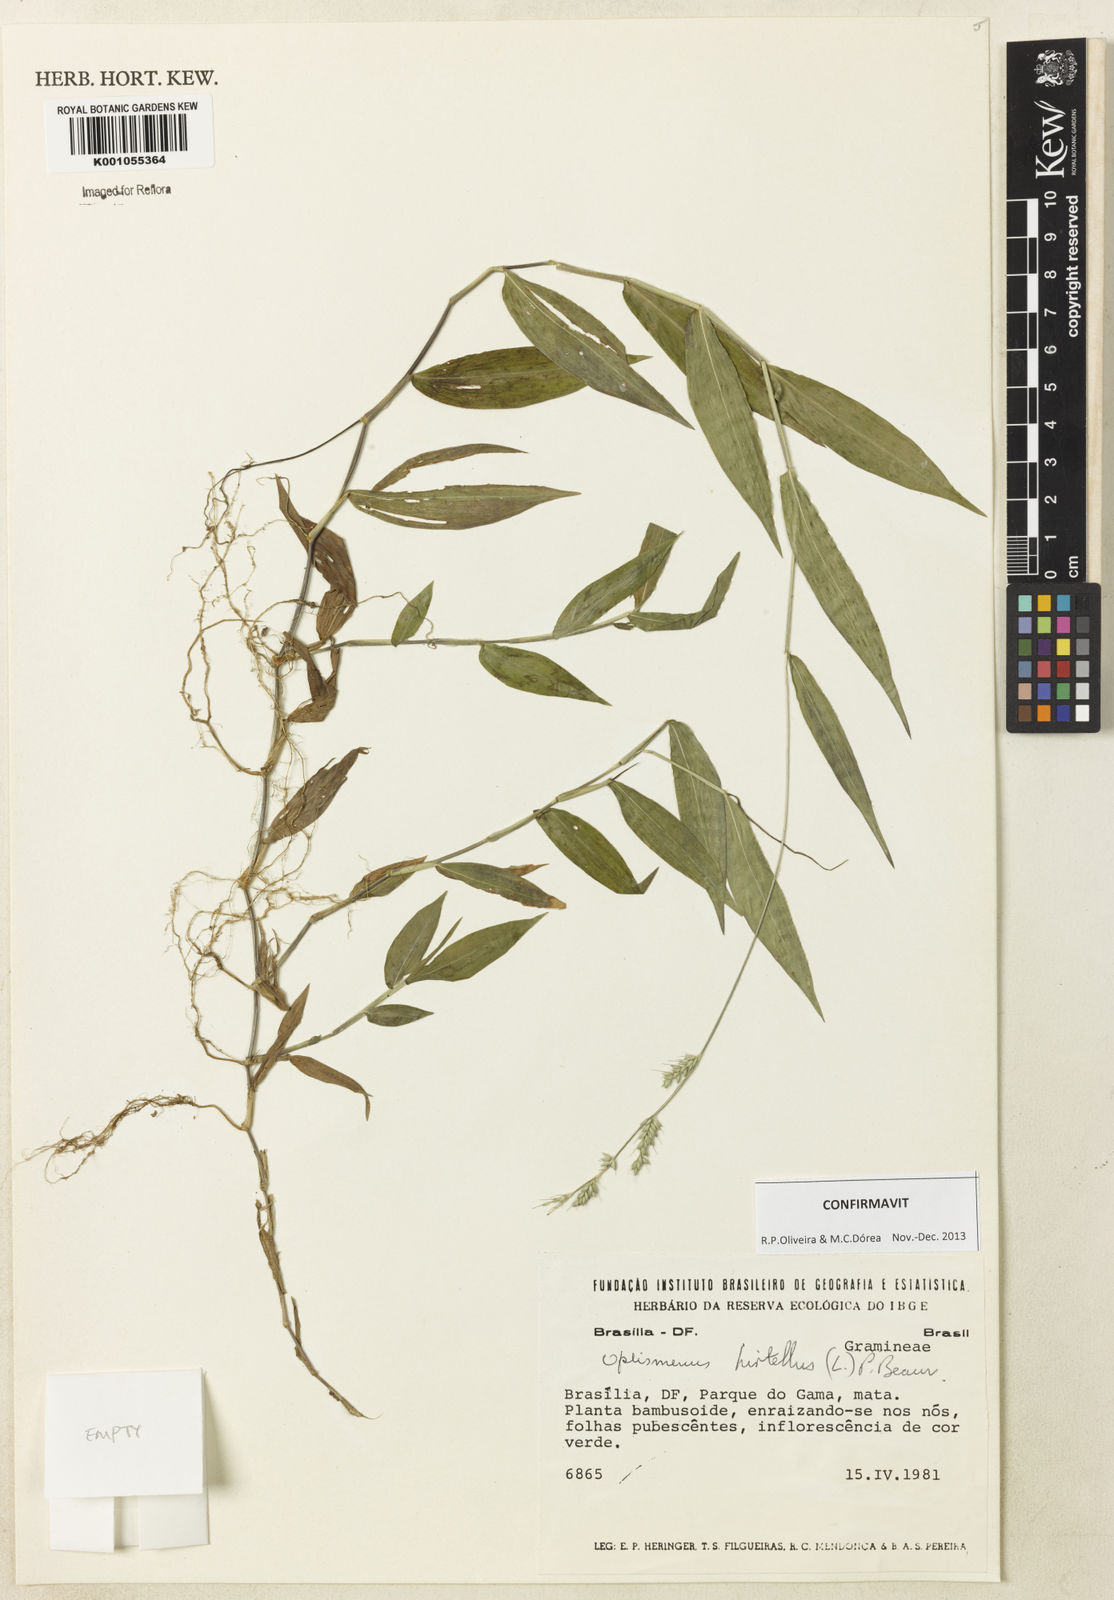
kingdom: Plantae
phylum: Tracheophyta
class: Liliopsida
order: Poales
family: Poaceae
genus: Oplismenus
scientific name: Oplismenus hirtellus
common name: Basketgrass
